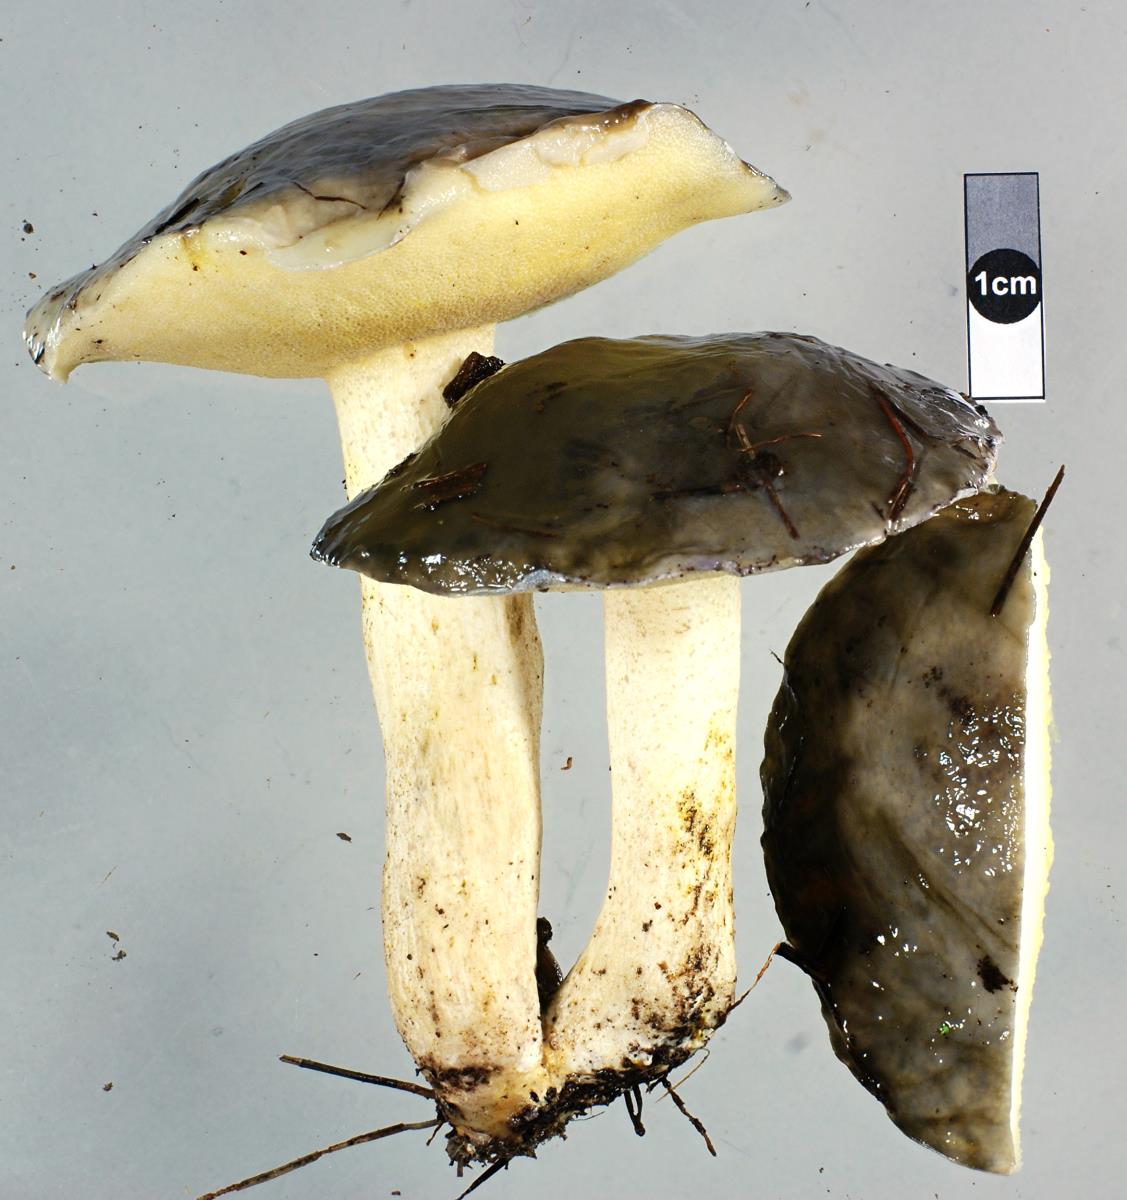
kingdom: Fungi
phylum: Basidiomycota
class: Agaricomycetes
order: Boletales
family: Suillaceae
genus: Suillus
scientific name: Suillus pungens
